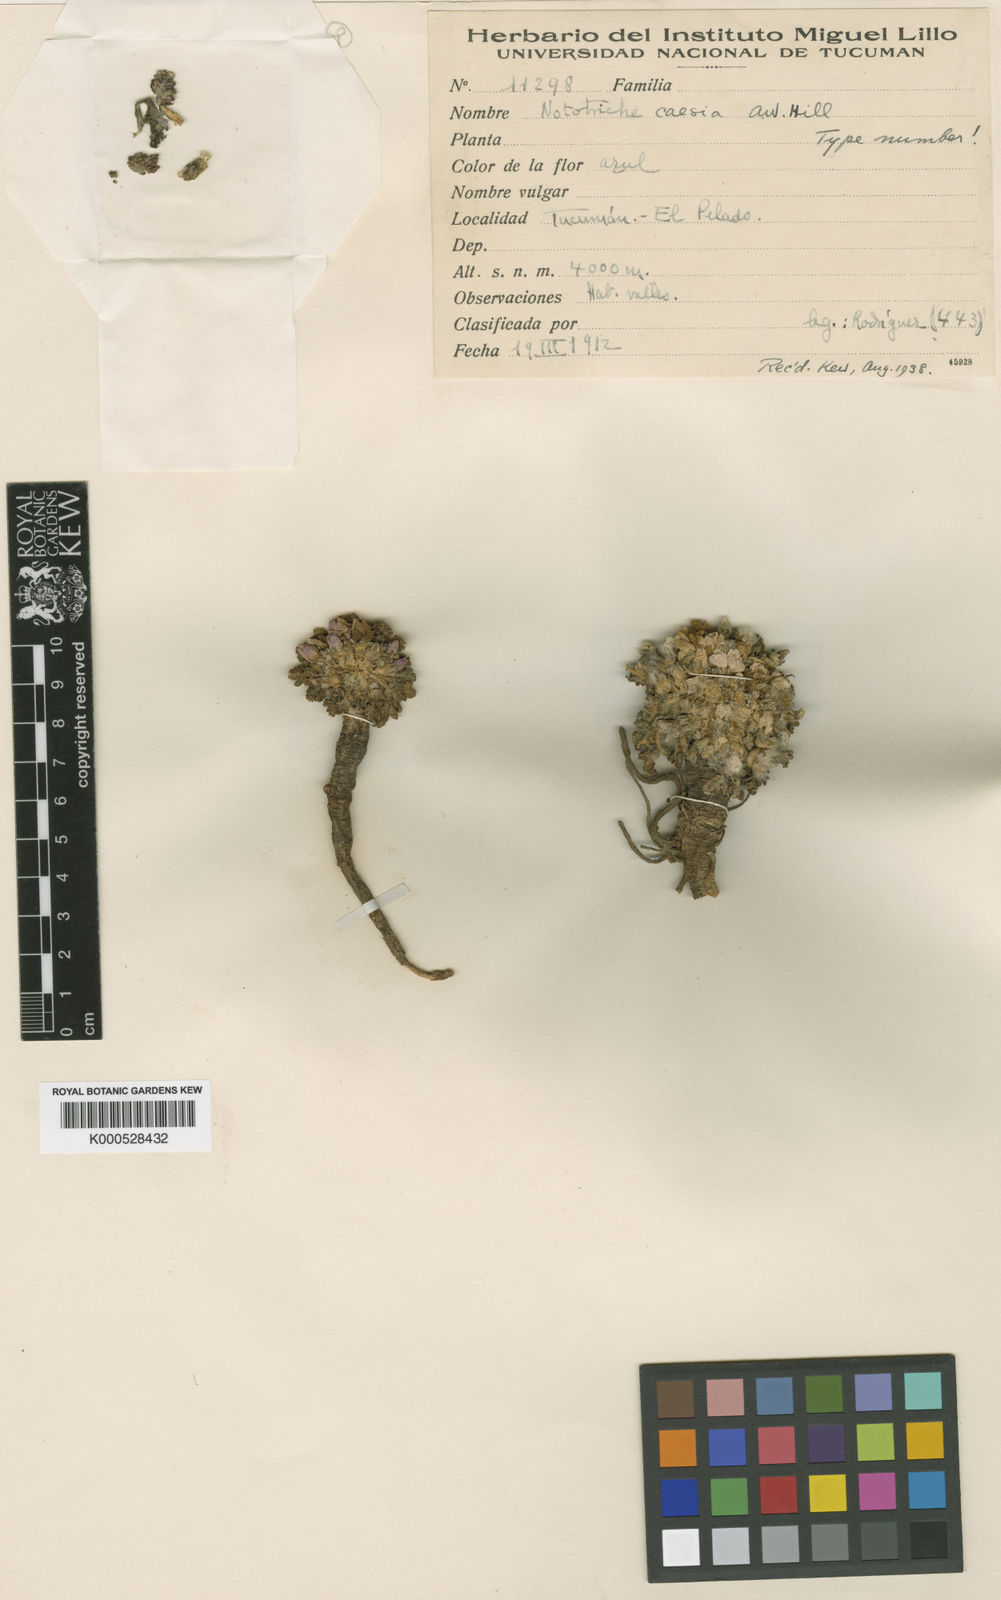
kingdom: Plantae
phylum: Tracheophyta
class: Magnoliopsida
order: Malvales
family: Malvaceae
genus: Nototriche
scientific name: Nototriche caesia
